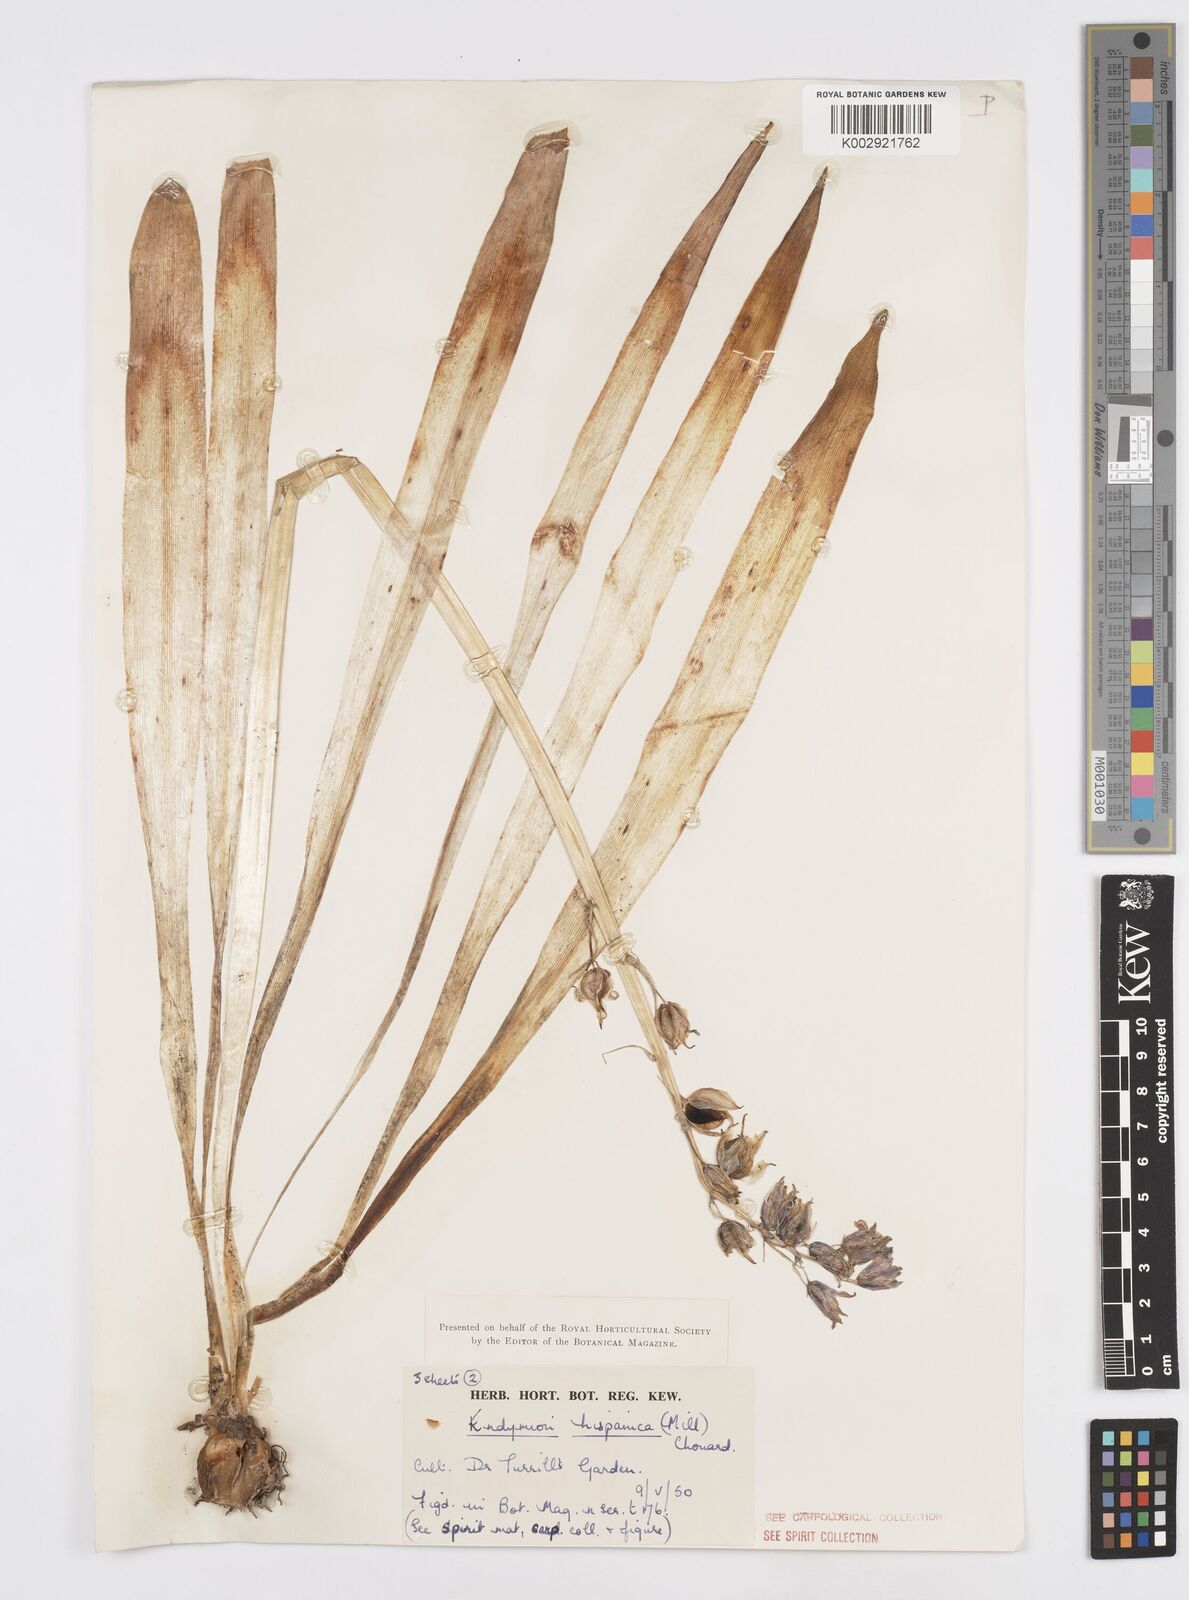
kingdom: Plantae
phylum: Tracheophyta
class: Liliopsida
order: Asparagales
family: Asparagaceae
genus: Hyacinthoides
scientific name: Hyacinthoides hispanica
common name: Spanish bluebell
